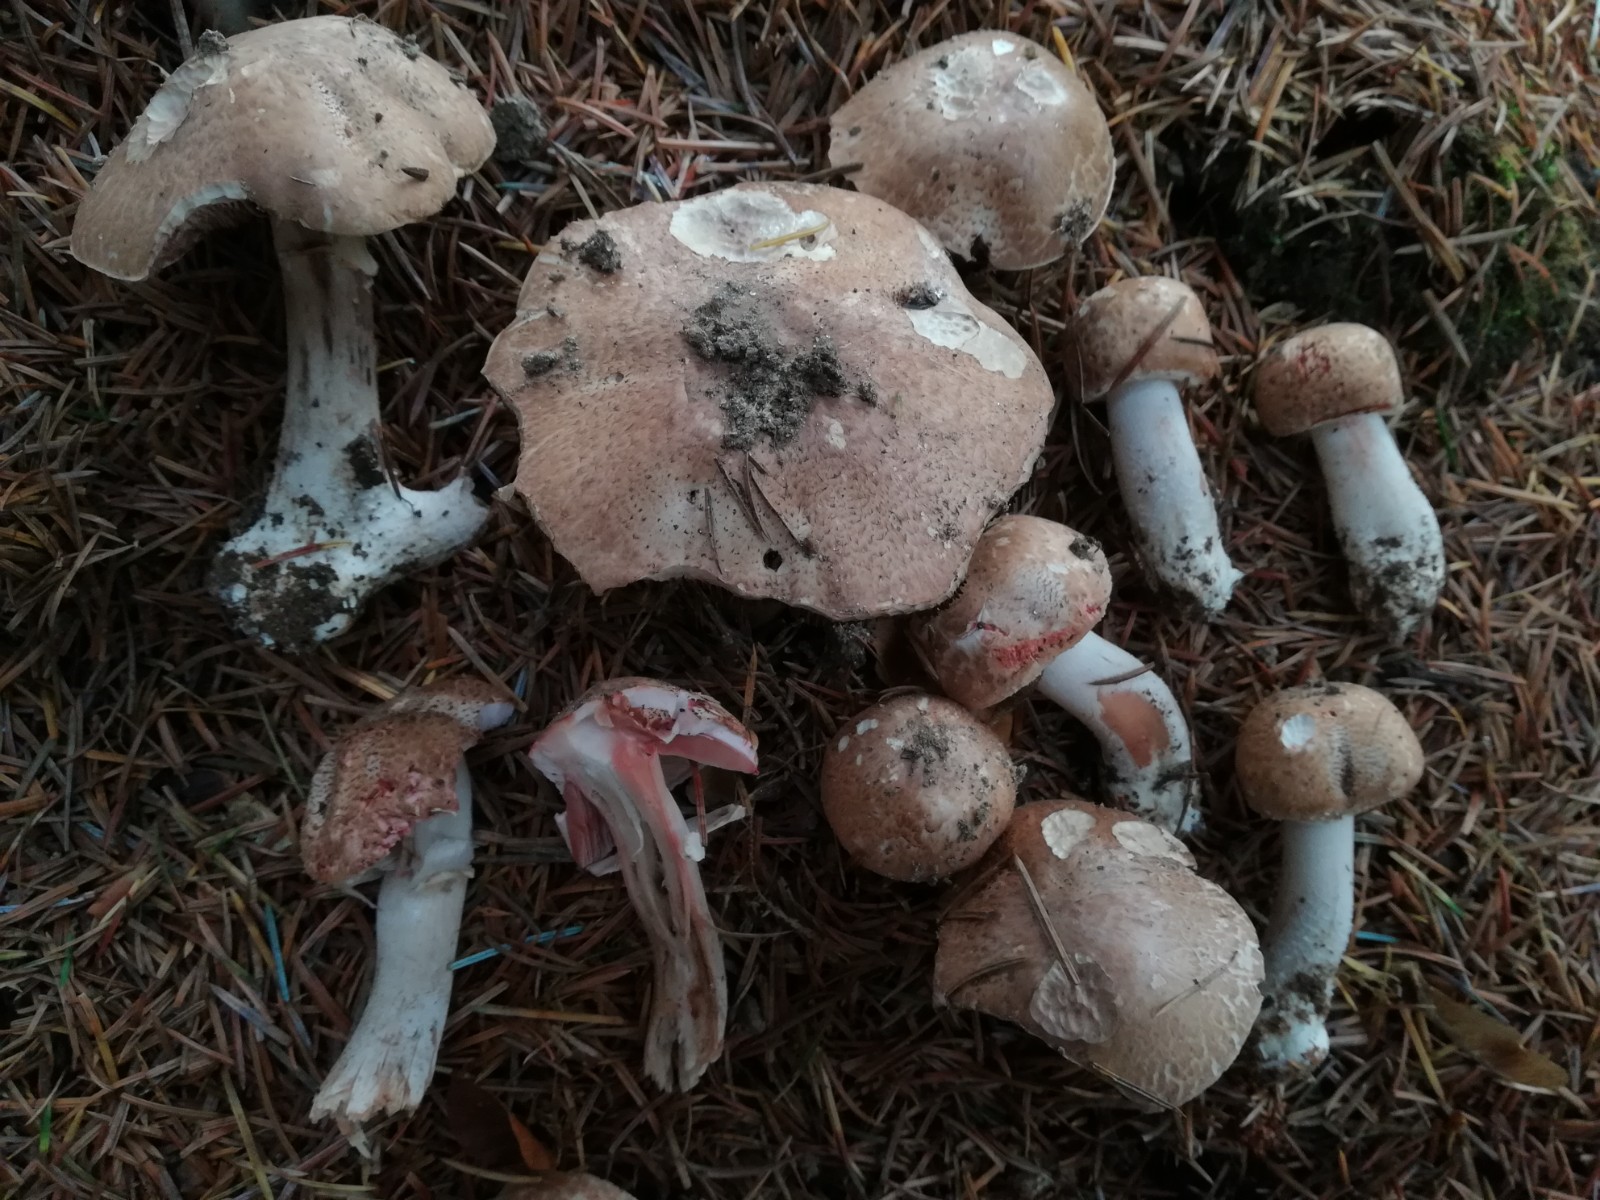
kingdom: Fungi
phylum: Basidiomycota
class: Agaricomycetes
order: Agaricales
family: Agaricaceae
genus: Agaricus
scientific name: Agaricus sylvaticus
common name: lille blod-champignon
